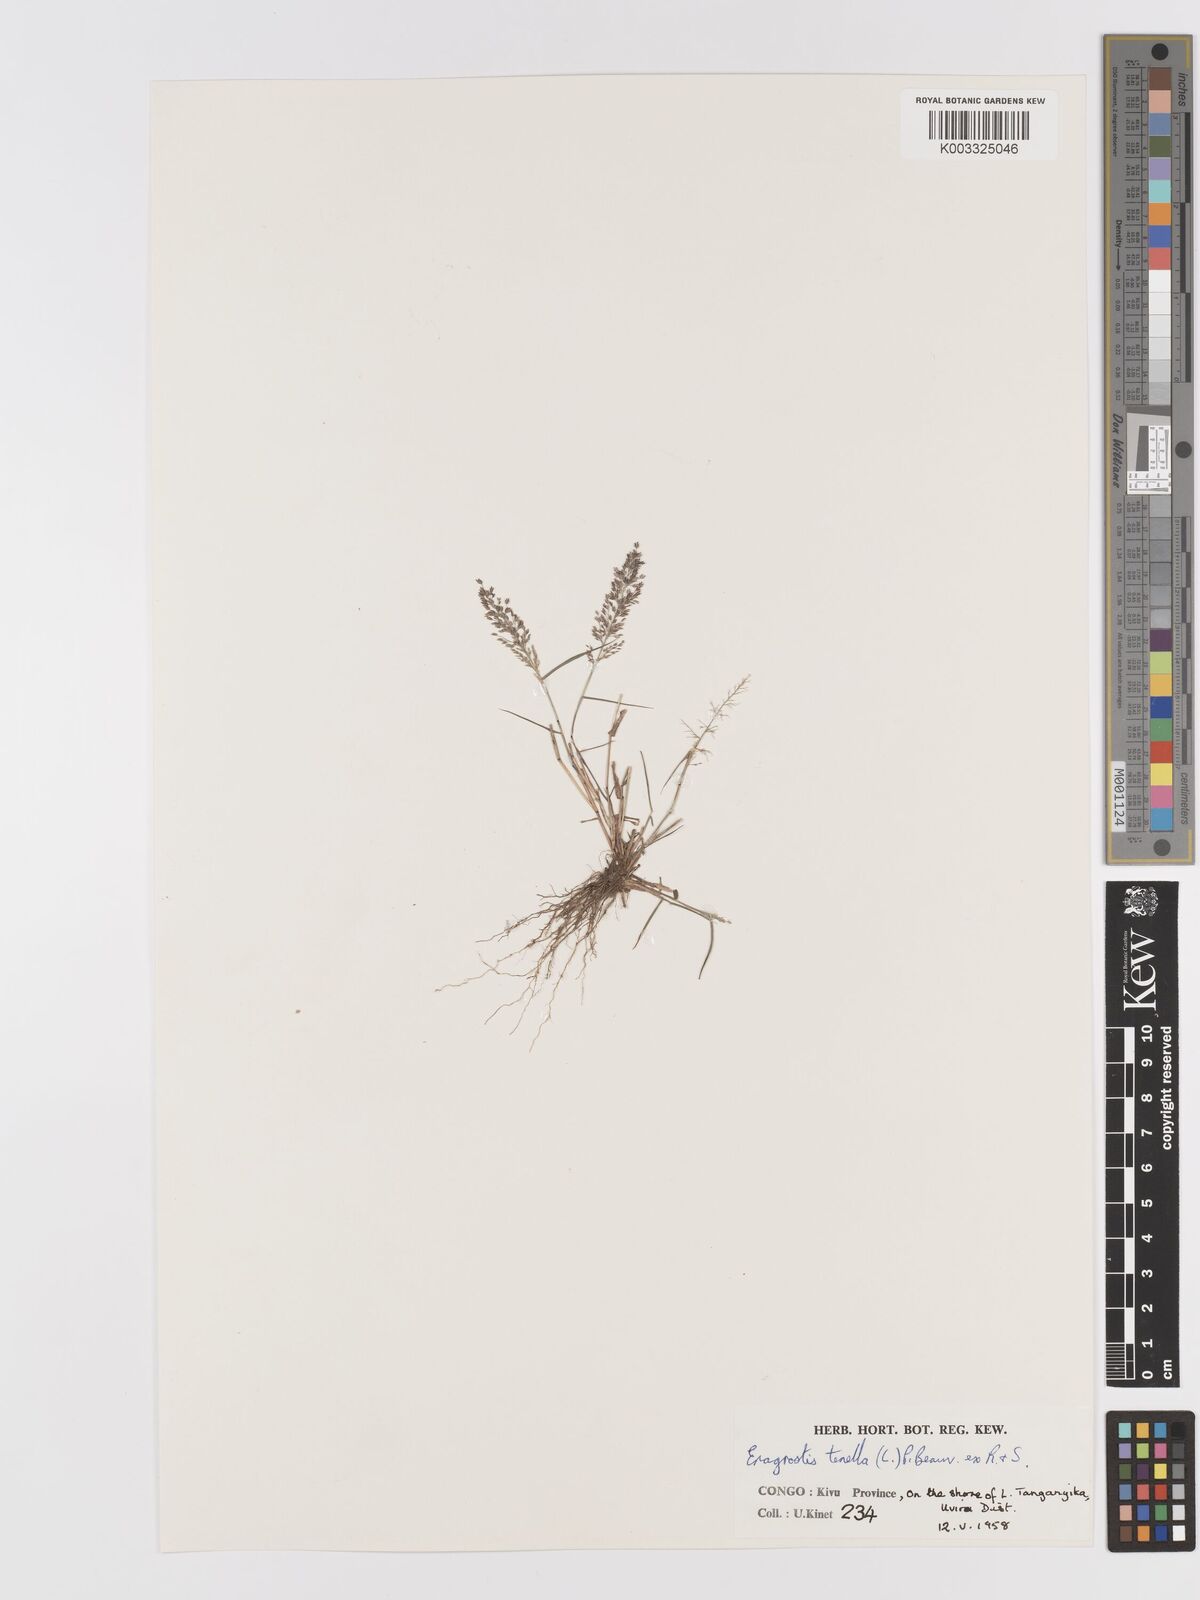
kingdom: Plantae
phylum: Tracheophyta
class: Liliopsida
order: Poales
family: Poaceae
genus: Eragrostis
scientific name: Eragrostis tenella
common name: Japanese lovegrass
